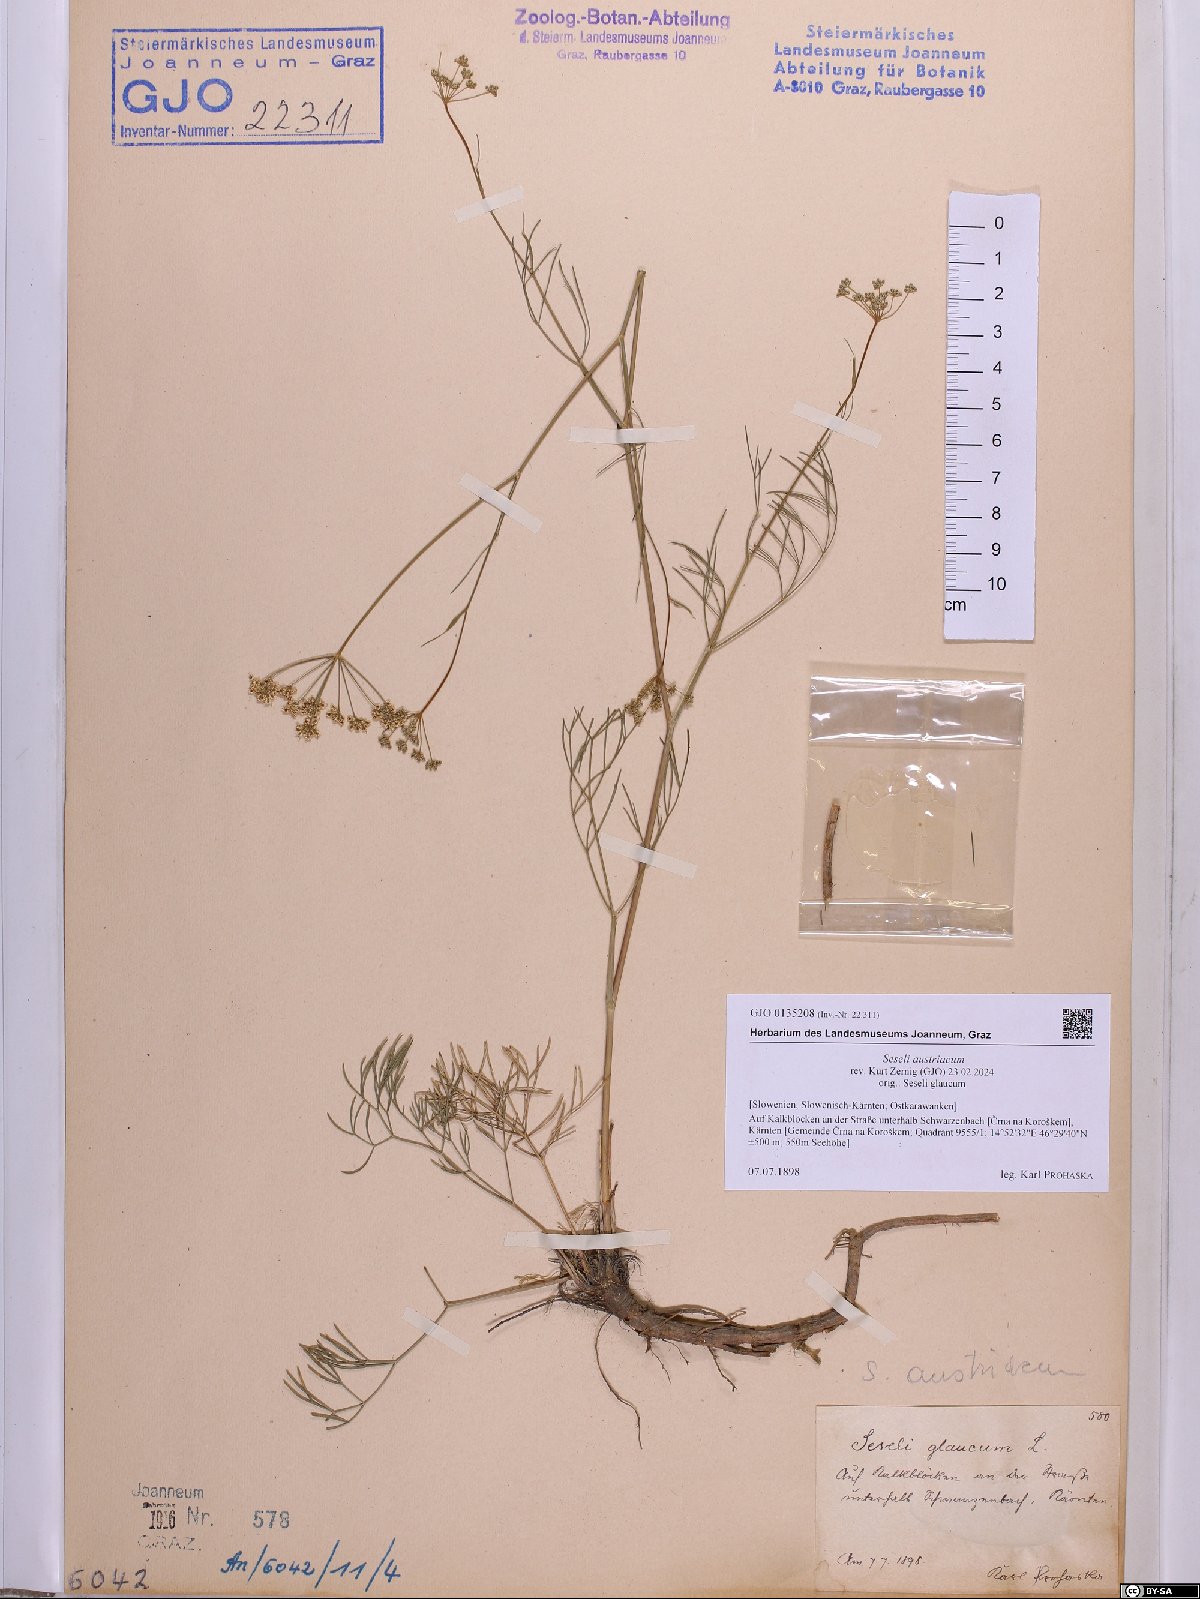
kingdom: Plantae
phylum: Tracheophyta
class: Magnoliopsida
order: Apiales
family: Apiaceae
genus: Seseli
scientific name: Seseli austriacum
